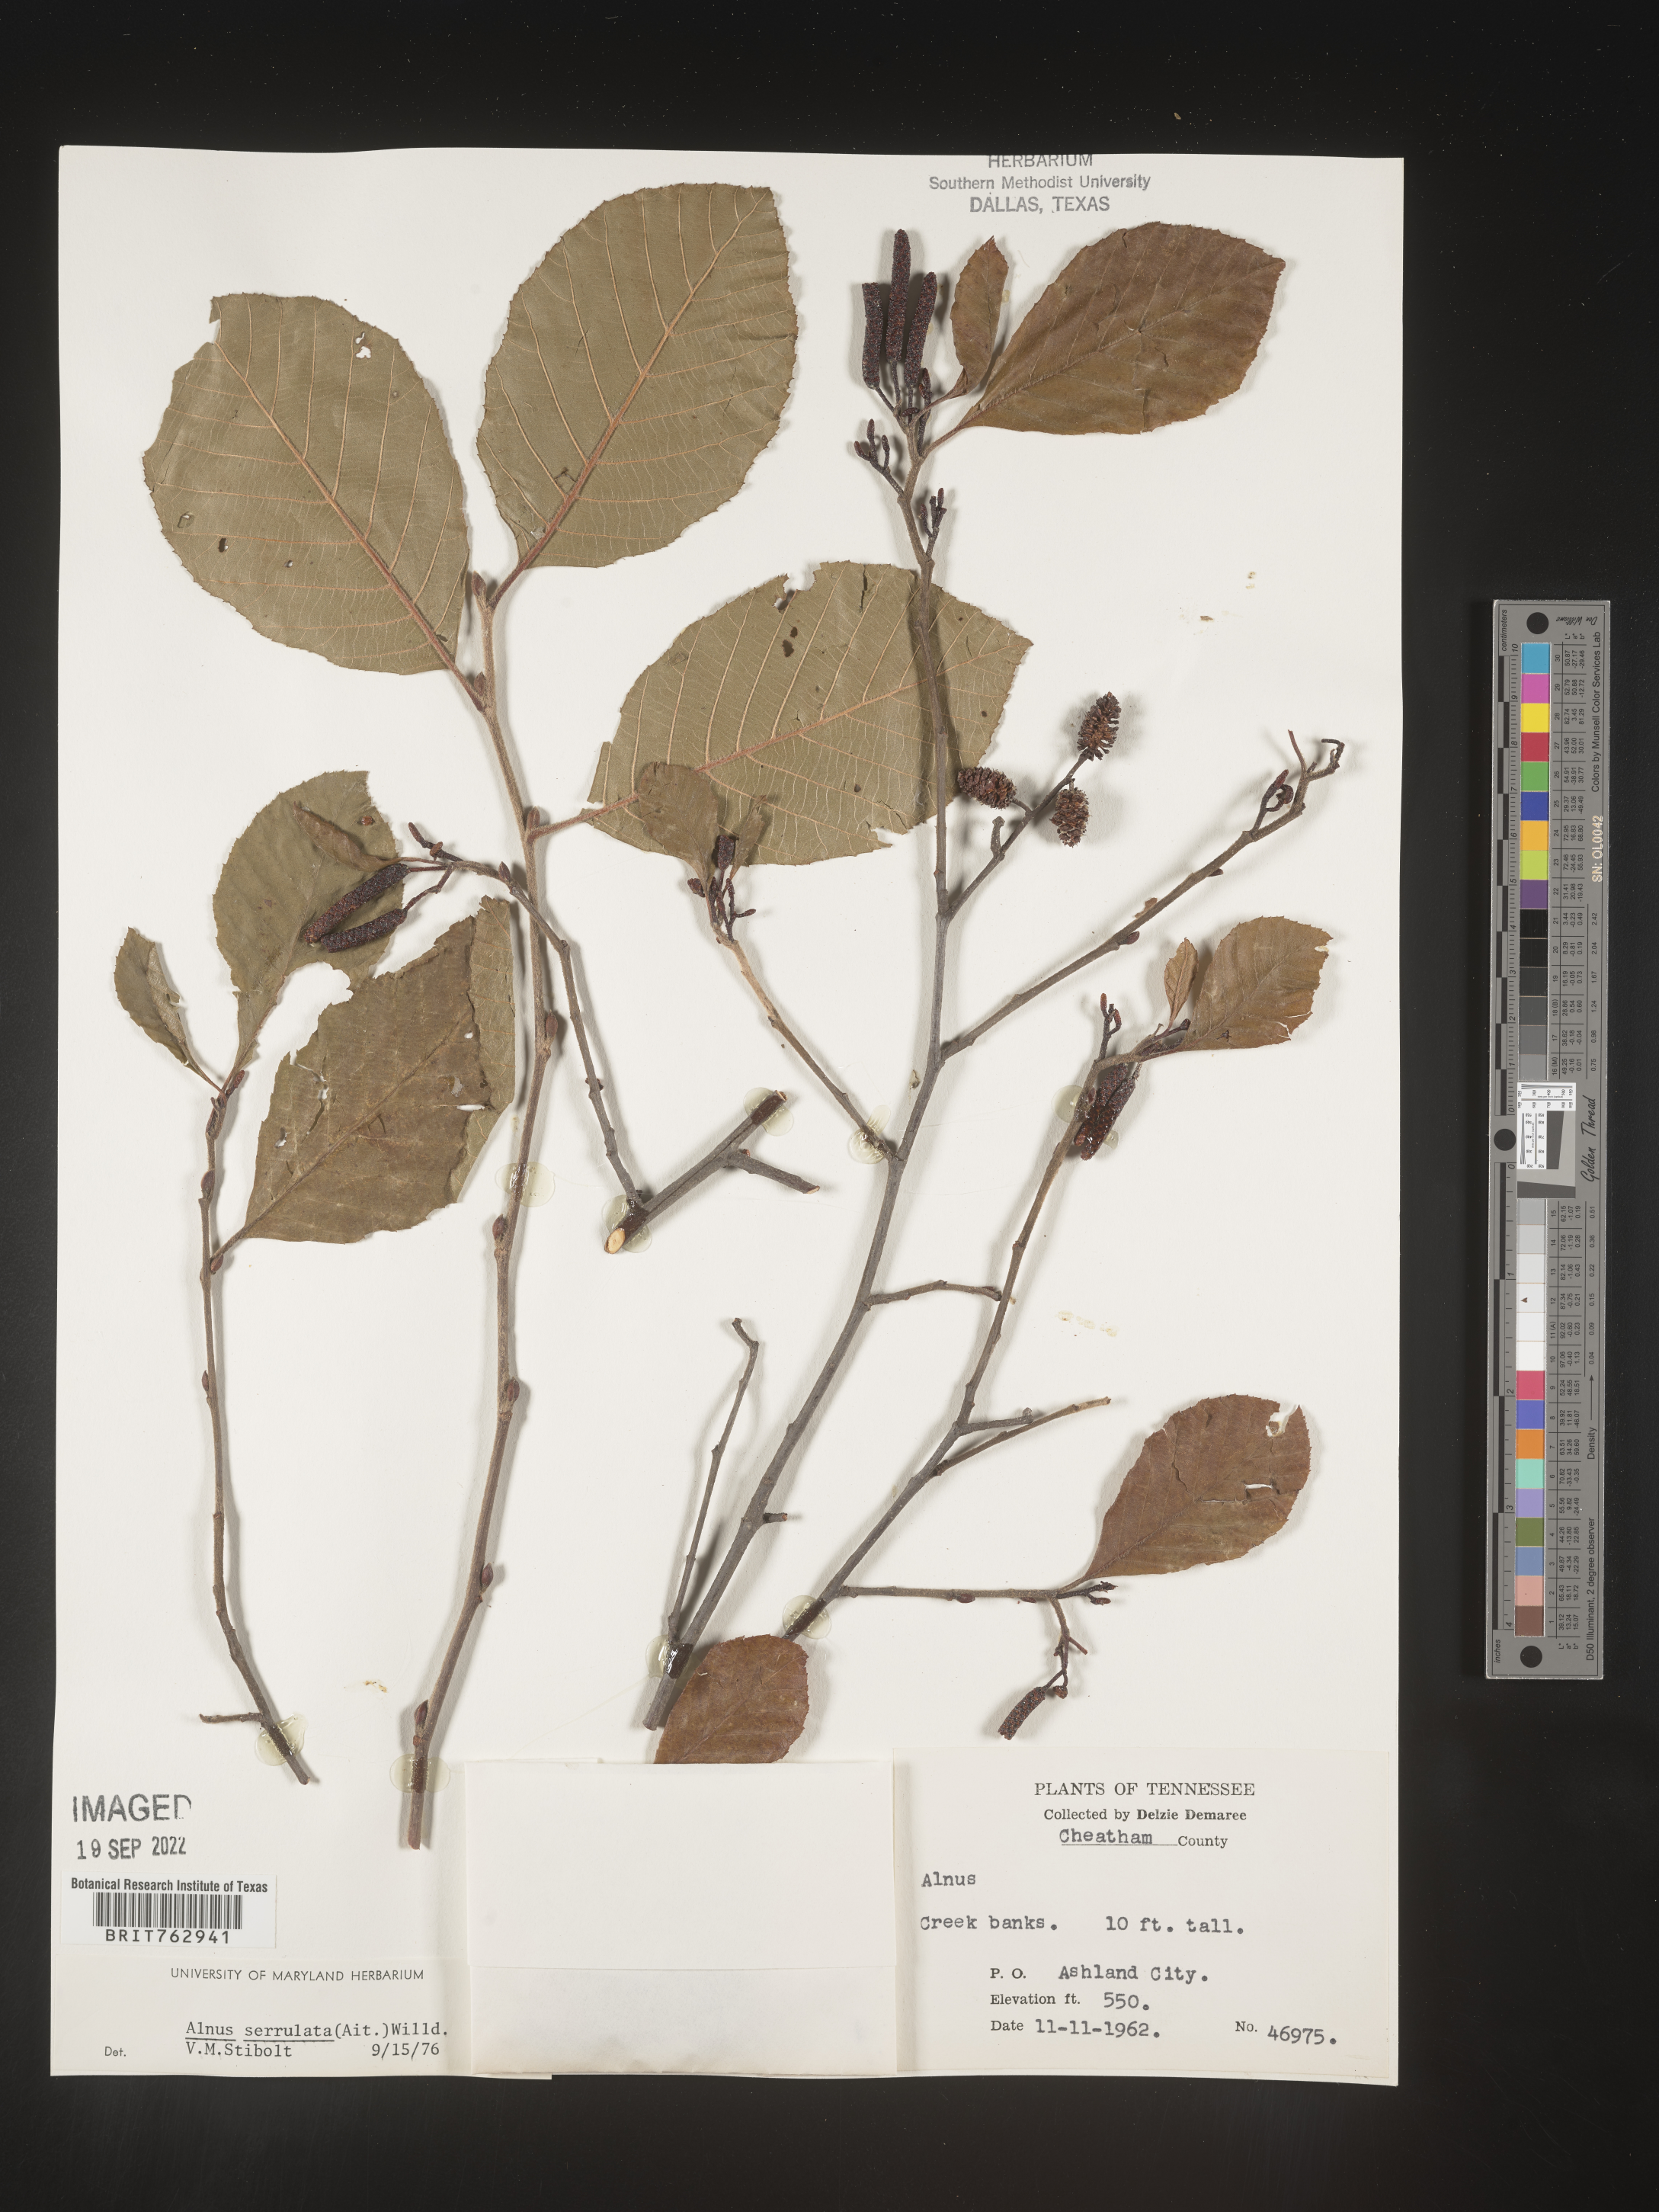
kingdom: Plantae
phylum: Tracheophyta
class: Magnoliopsida
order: Fagales
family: Betulaceae
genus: Alnus
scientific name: Alnus serrulata
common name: Hazel alder
